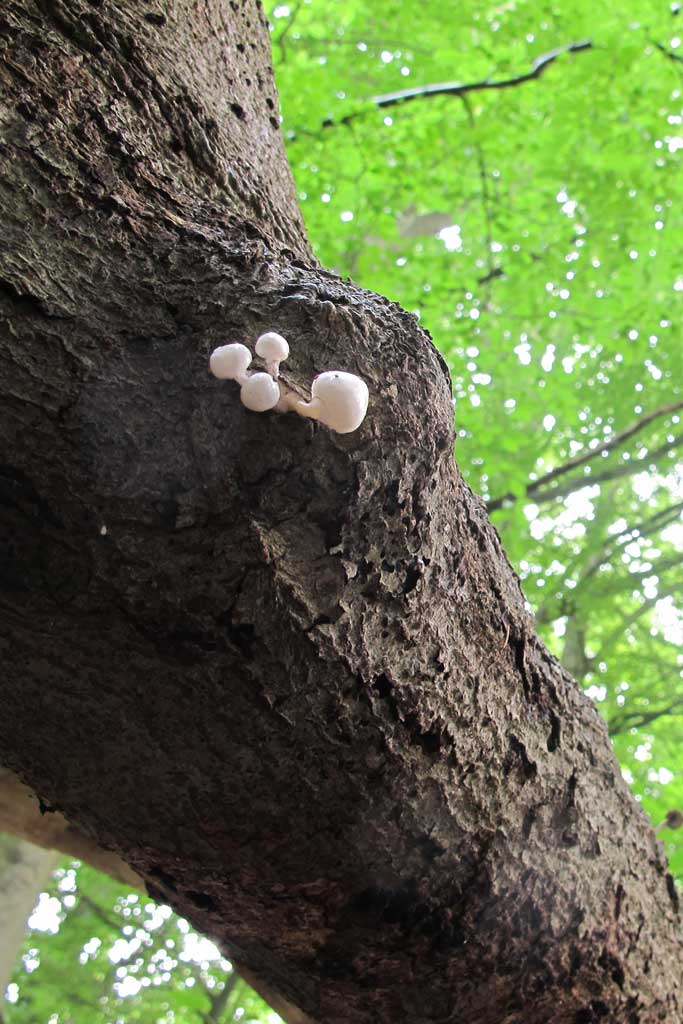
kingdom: Fungi
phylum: Basidiomycota
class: Agaricomycetes
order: Agaricales
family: Physalacriaceae
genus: Mucidula
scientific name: Mucidula mucida
